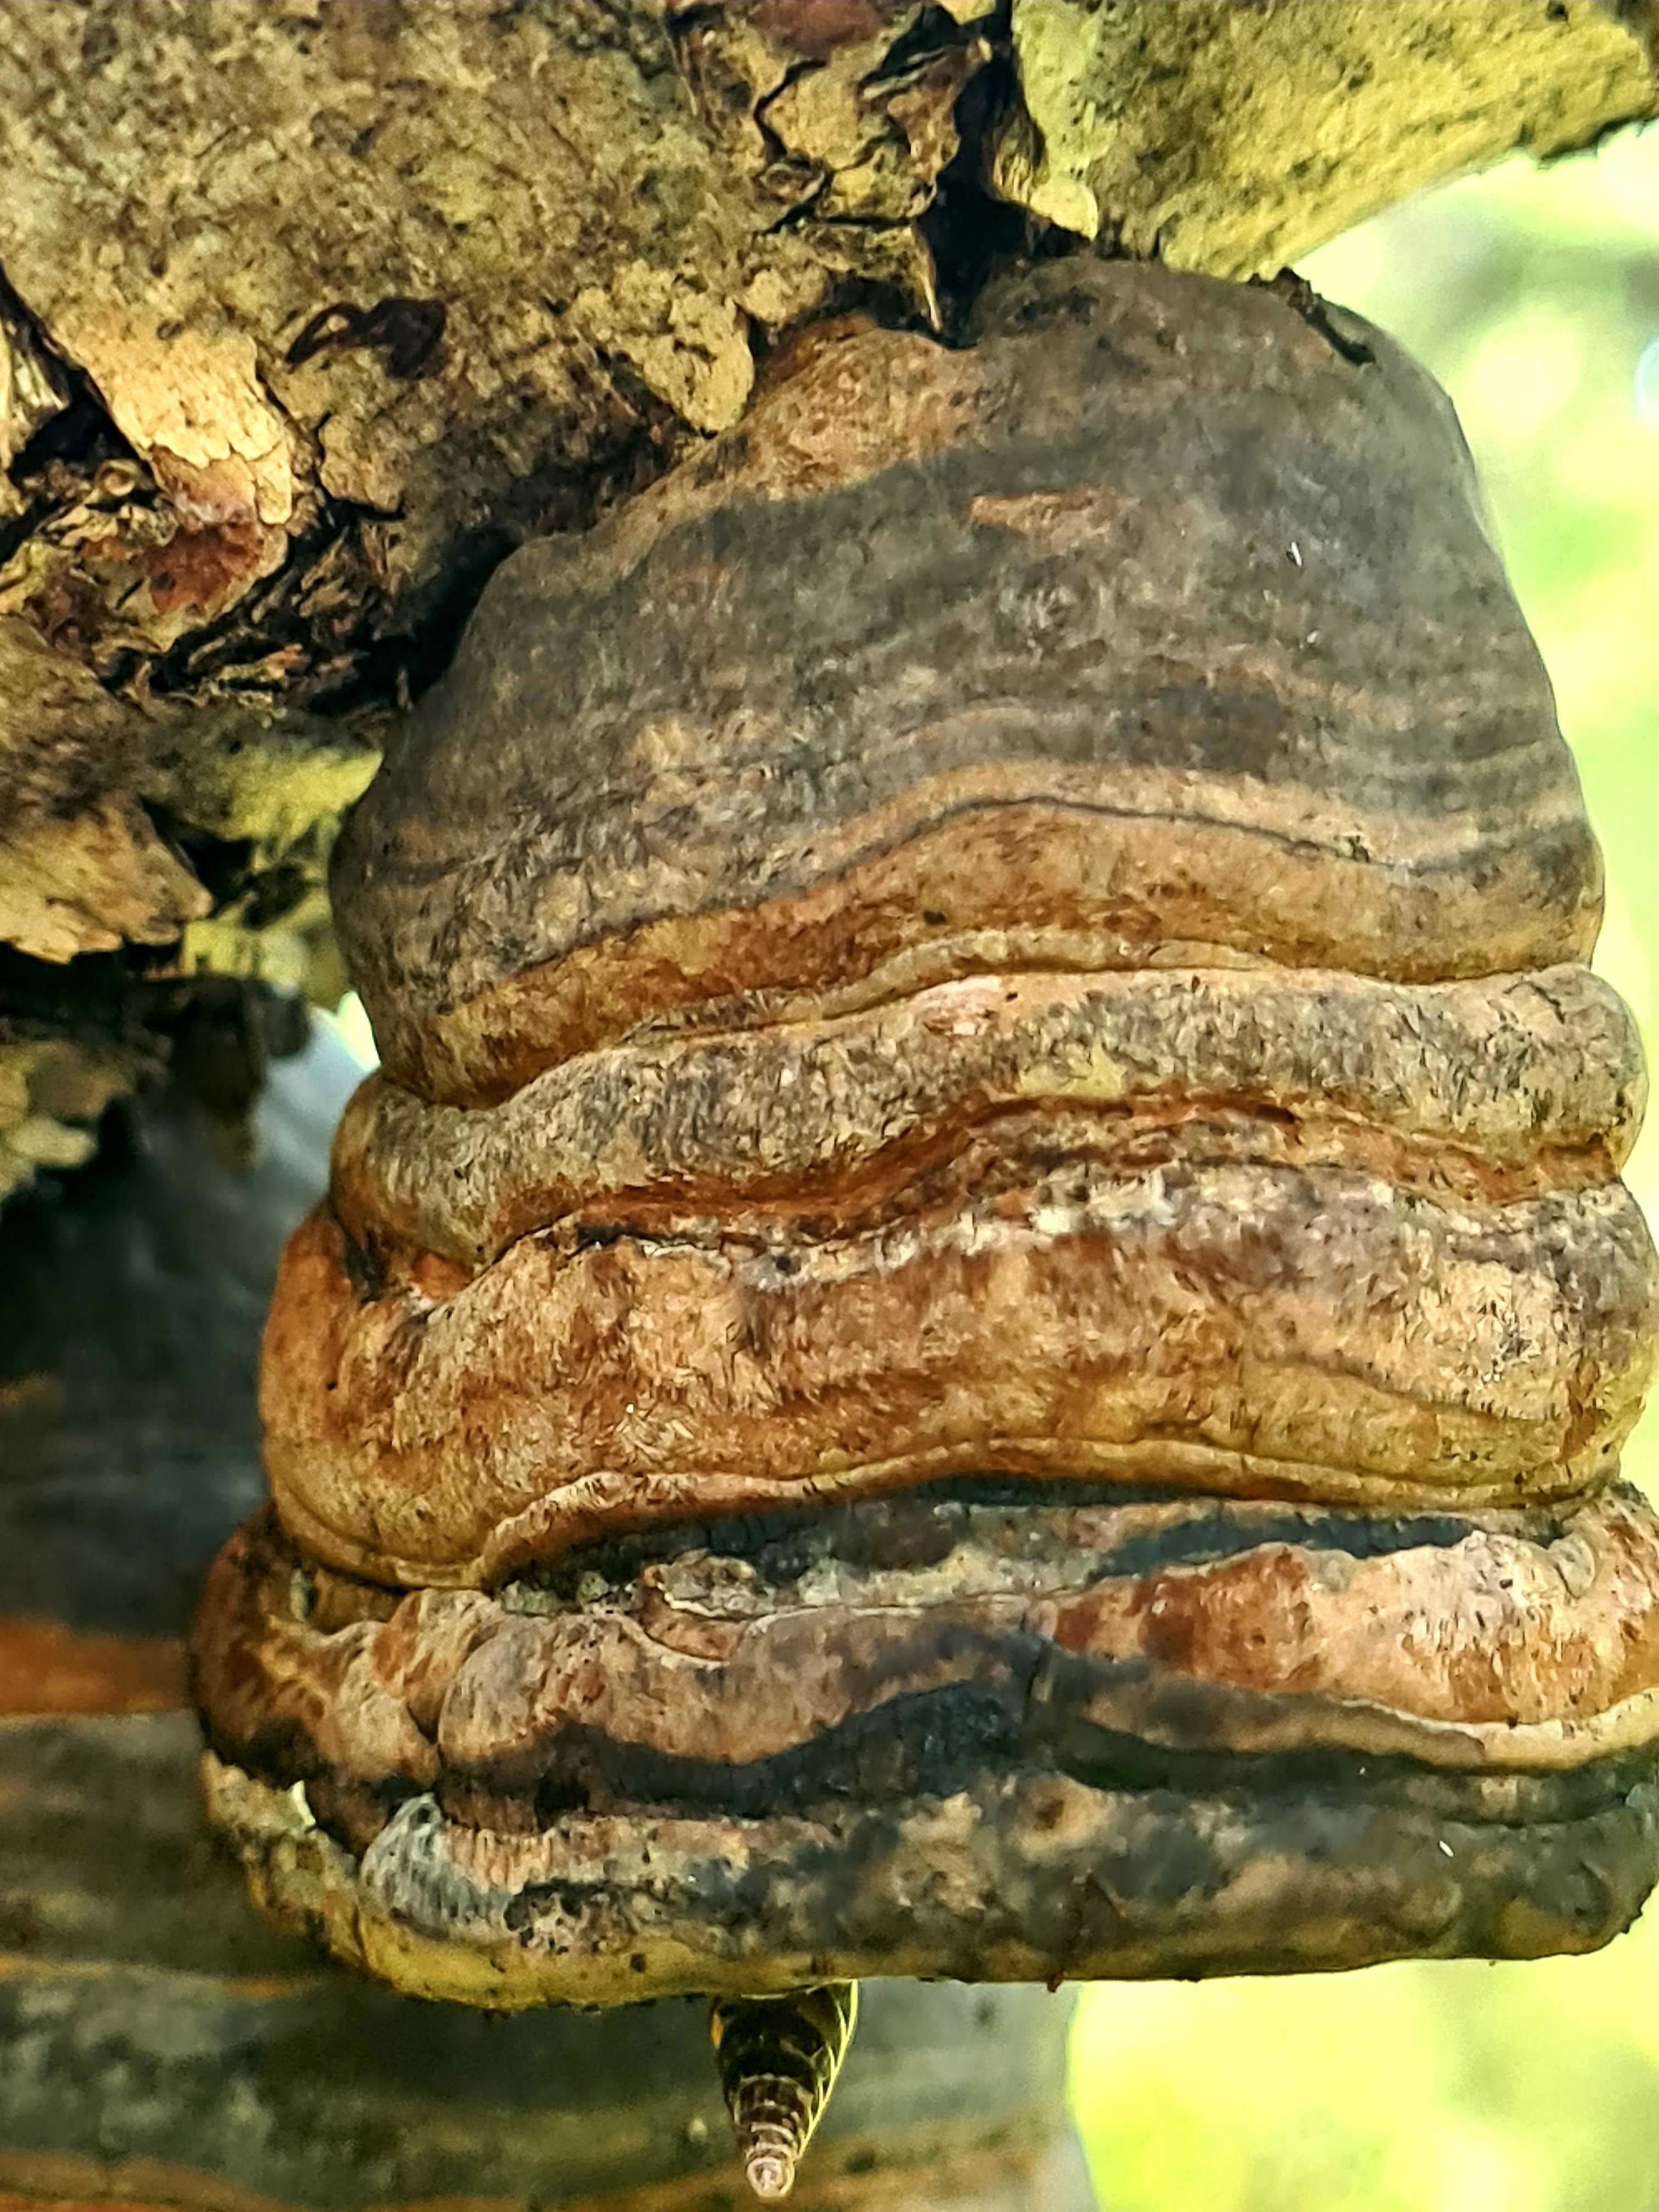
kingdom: Fungi
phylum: Basidiomycota
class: Agaricomycetes
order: Polyporales
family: Polyporaceae
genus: Fomes
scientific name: Fomes fomentarius
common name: tøndersvamp
